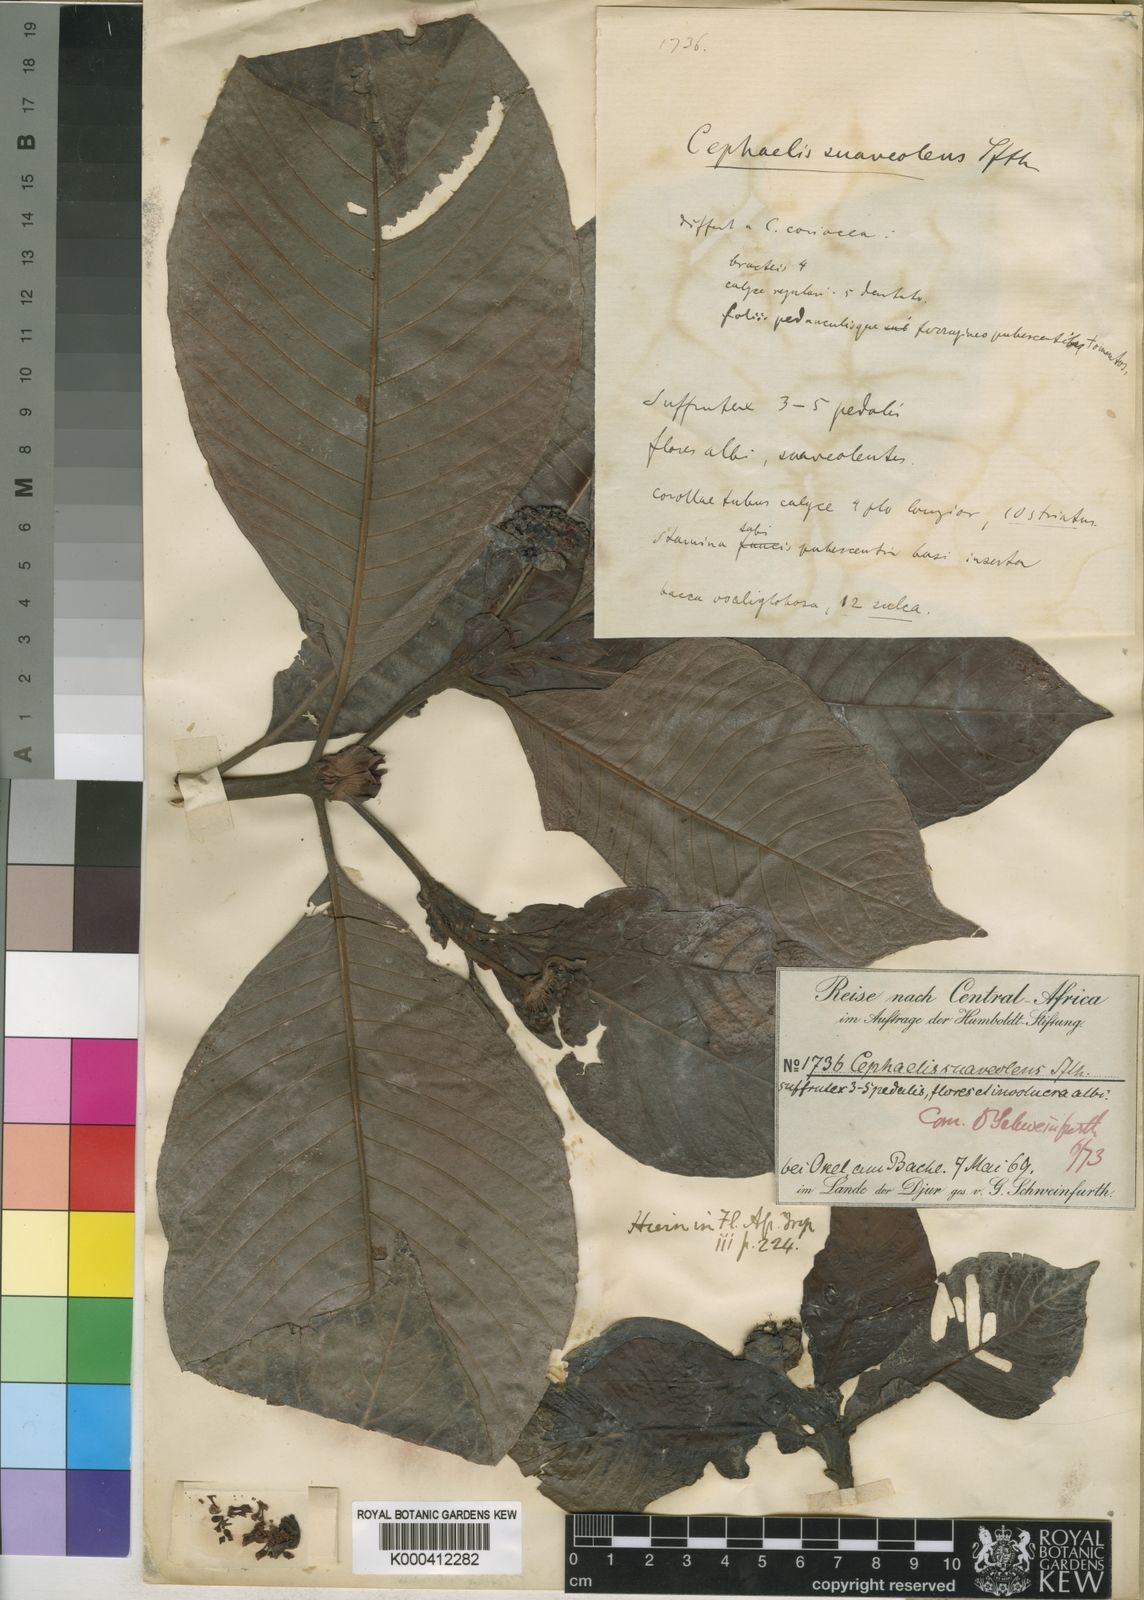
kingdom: Plantae
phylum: Tracheophyta
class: Magnoliopsida
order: Gentianales
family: Rubiaceae
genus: Psychotria
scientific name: Psychotria peduncularis
